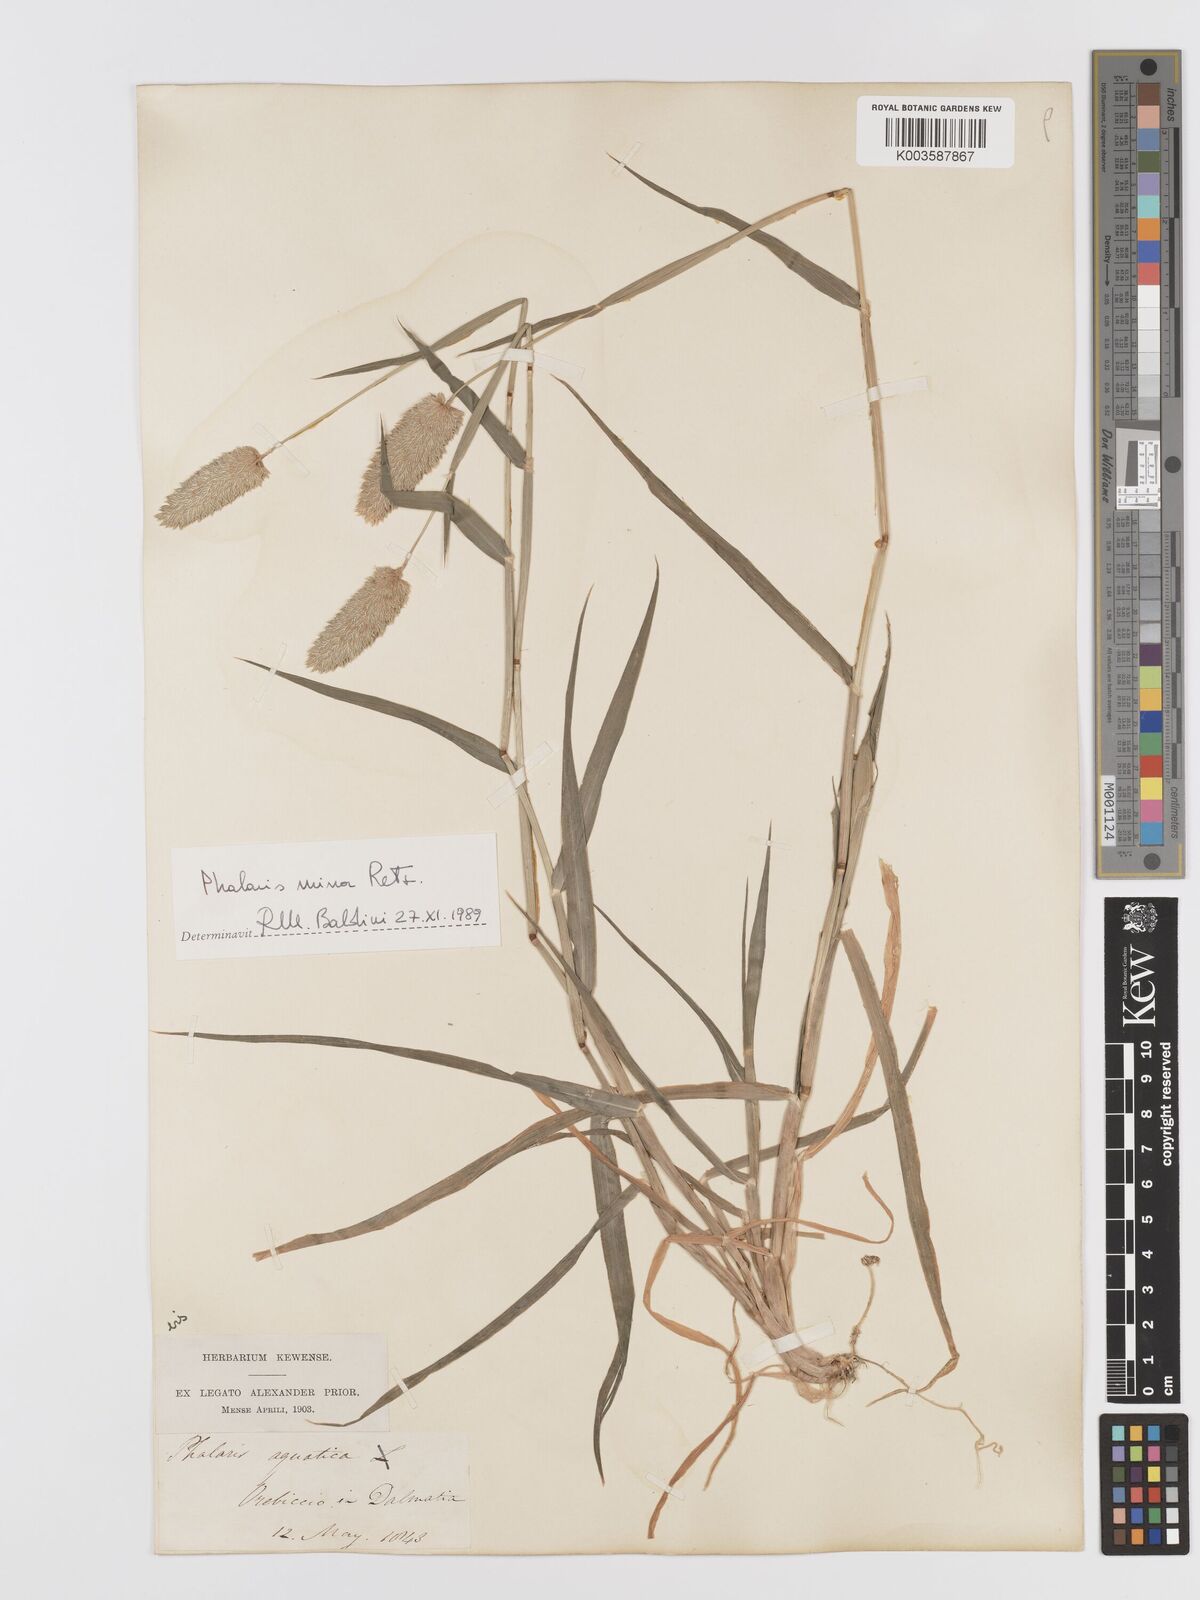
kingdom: Plantae
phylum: Tracheophyta
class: Liliopsida
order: Poales
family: Poaceae
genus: Phalaris
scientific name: Phalaris minor
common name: Littleseed canarygrass
